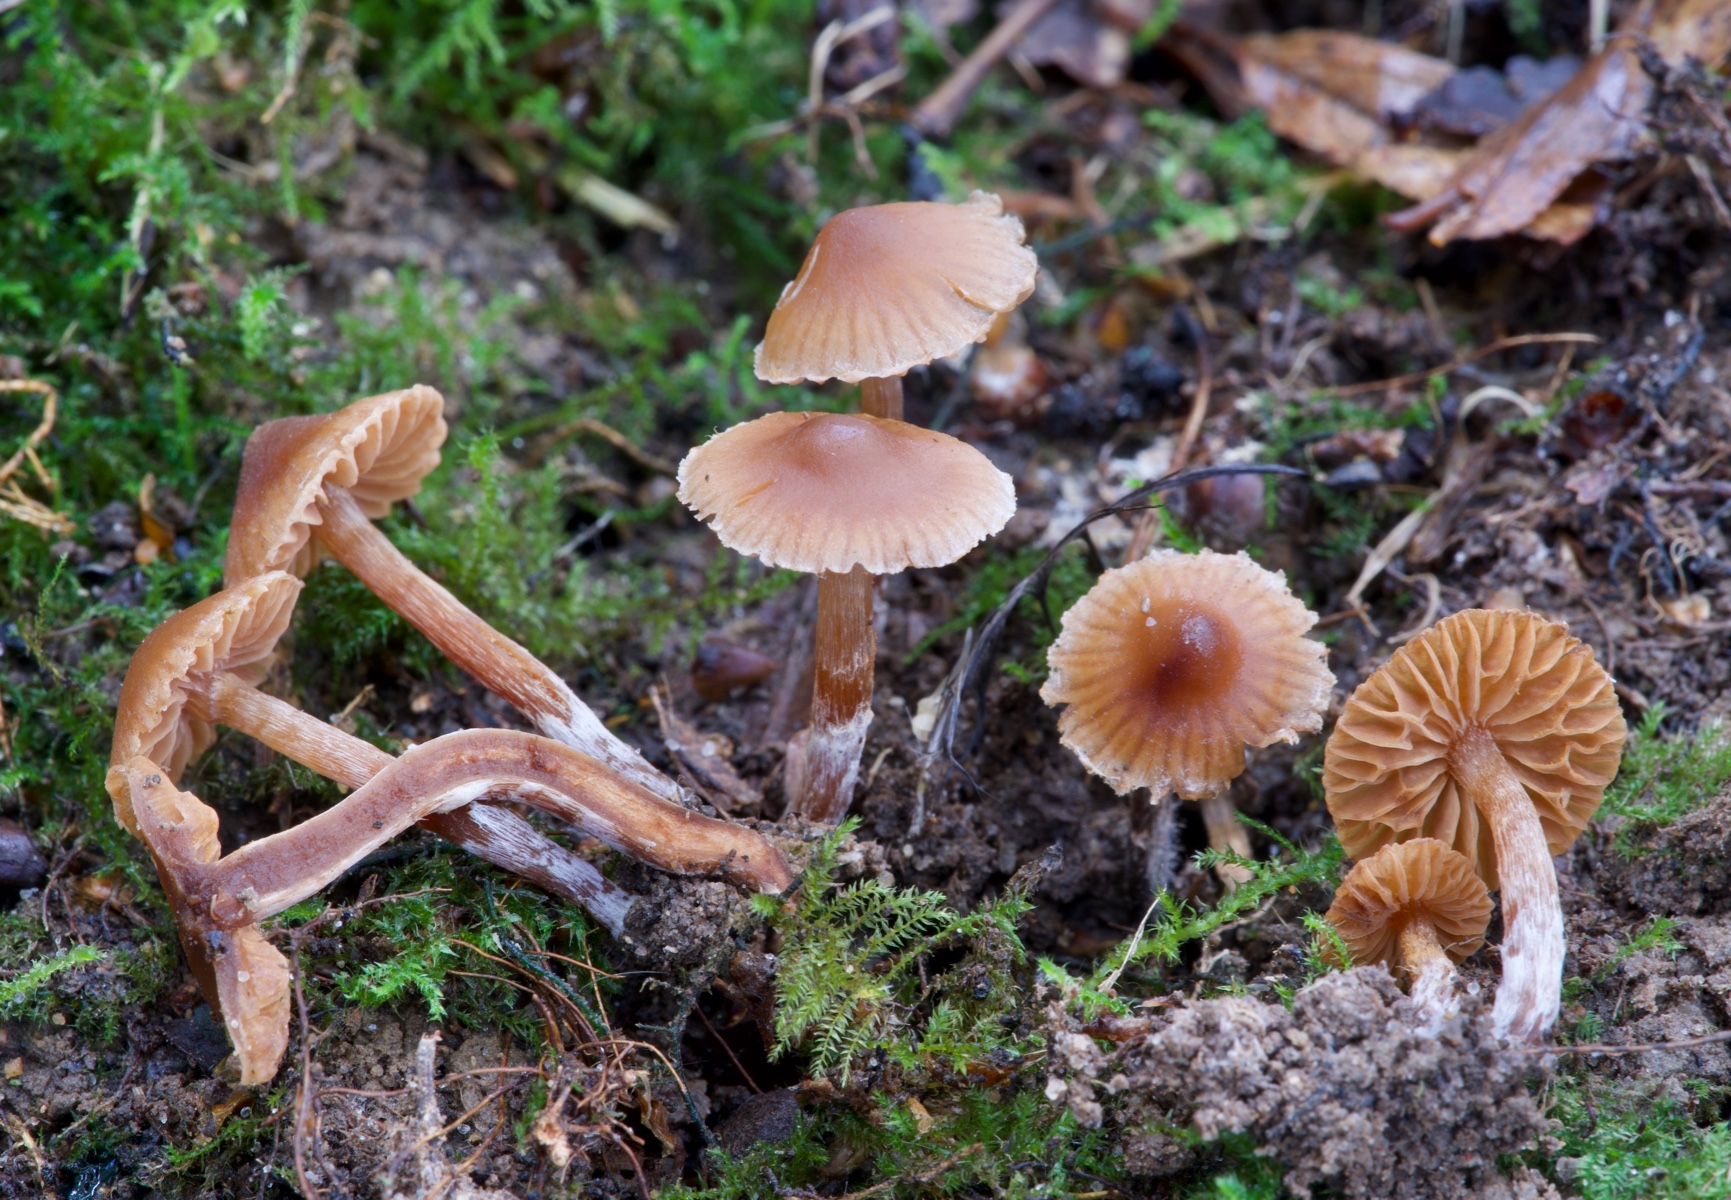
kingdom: Fungi
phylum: Basidiomycota
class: Agaricomycetes
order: Agaricales
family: Cortinariaceae
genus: Cortinarius
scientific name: Cortinarius
